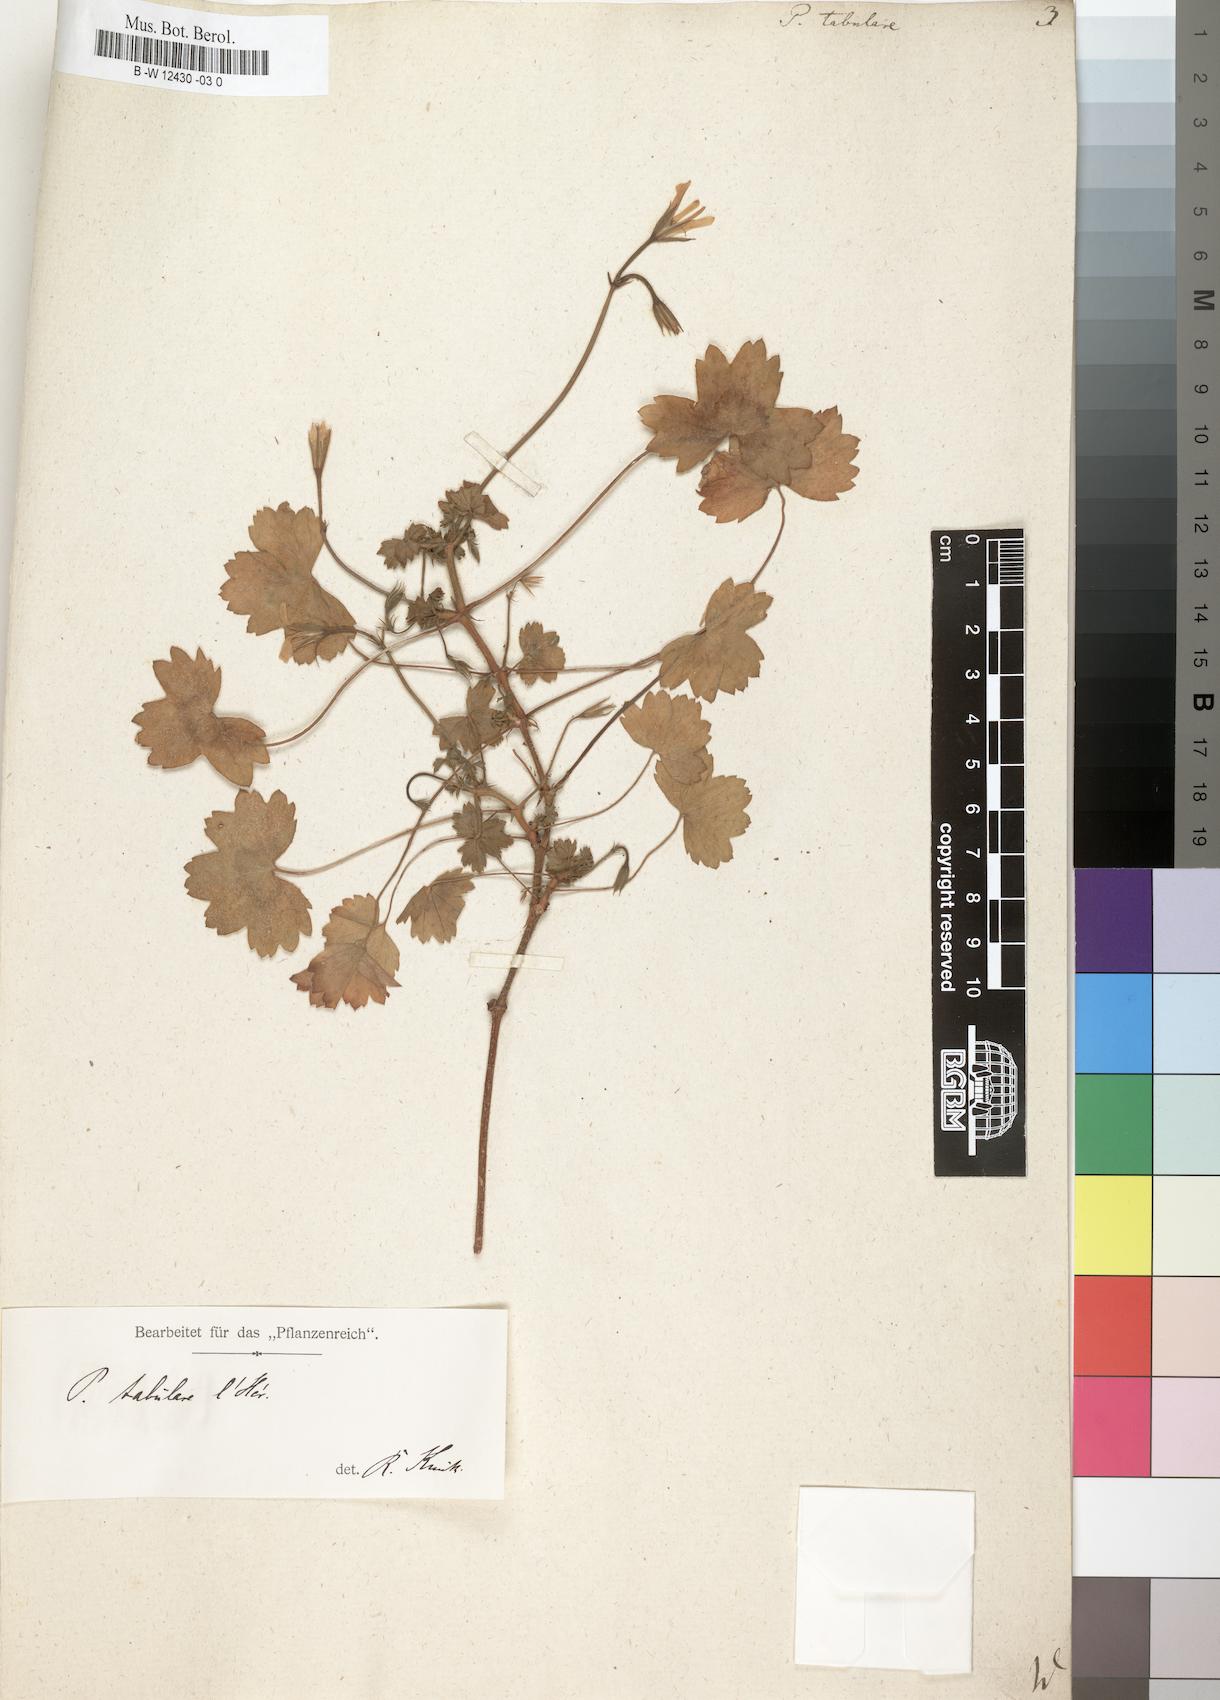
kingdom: Plantae
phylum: Tracheophyta
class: Magnoliopsida
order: Geraniales
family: Geraniaceae
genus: Pelargonium
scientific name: Pelargonium tabulare
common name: Table mountain pelargonium
